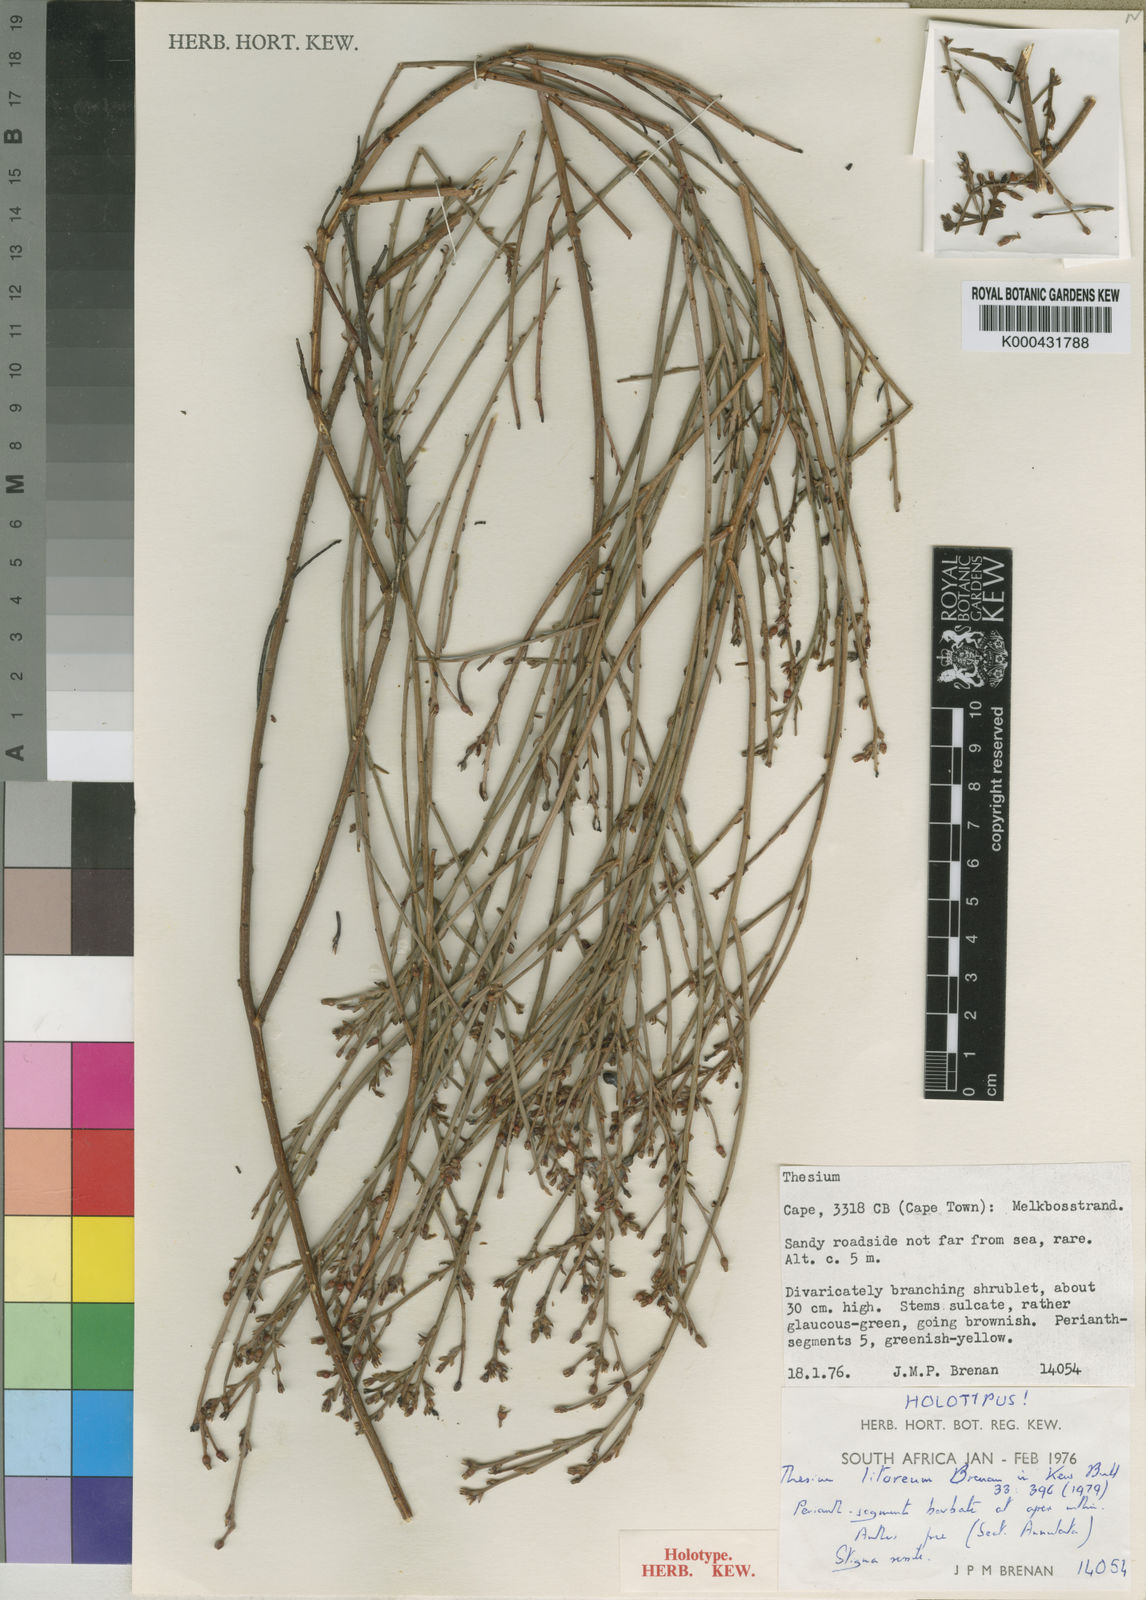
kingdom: Plantae
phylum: Tracheophyta
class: Magnoliopsida
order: Santalales
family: Thesiaceae
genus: Thesium
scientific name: Thesium litoreum
